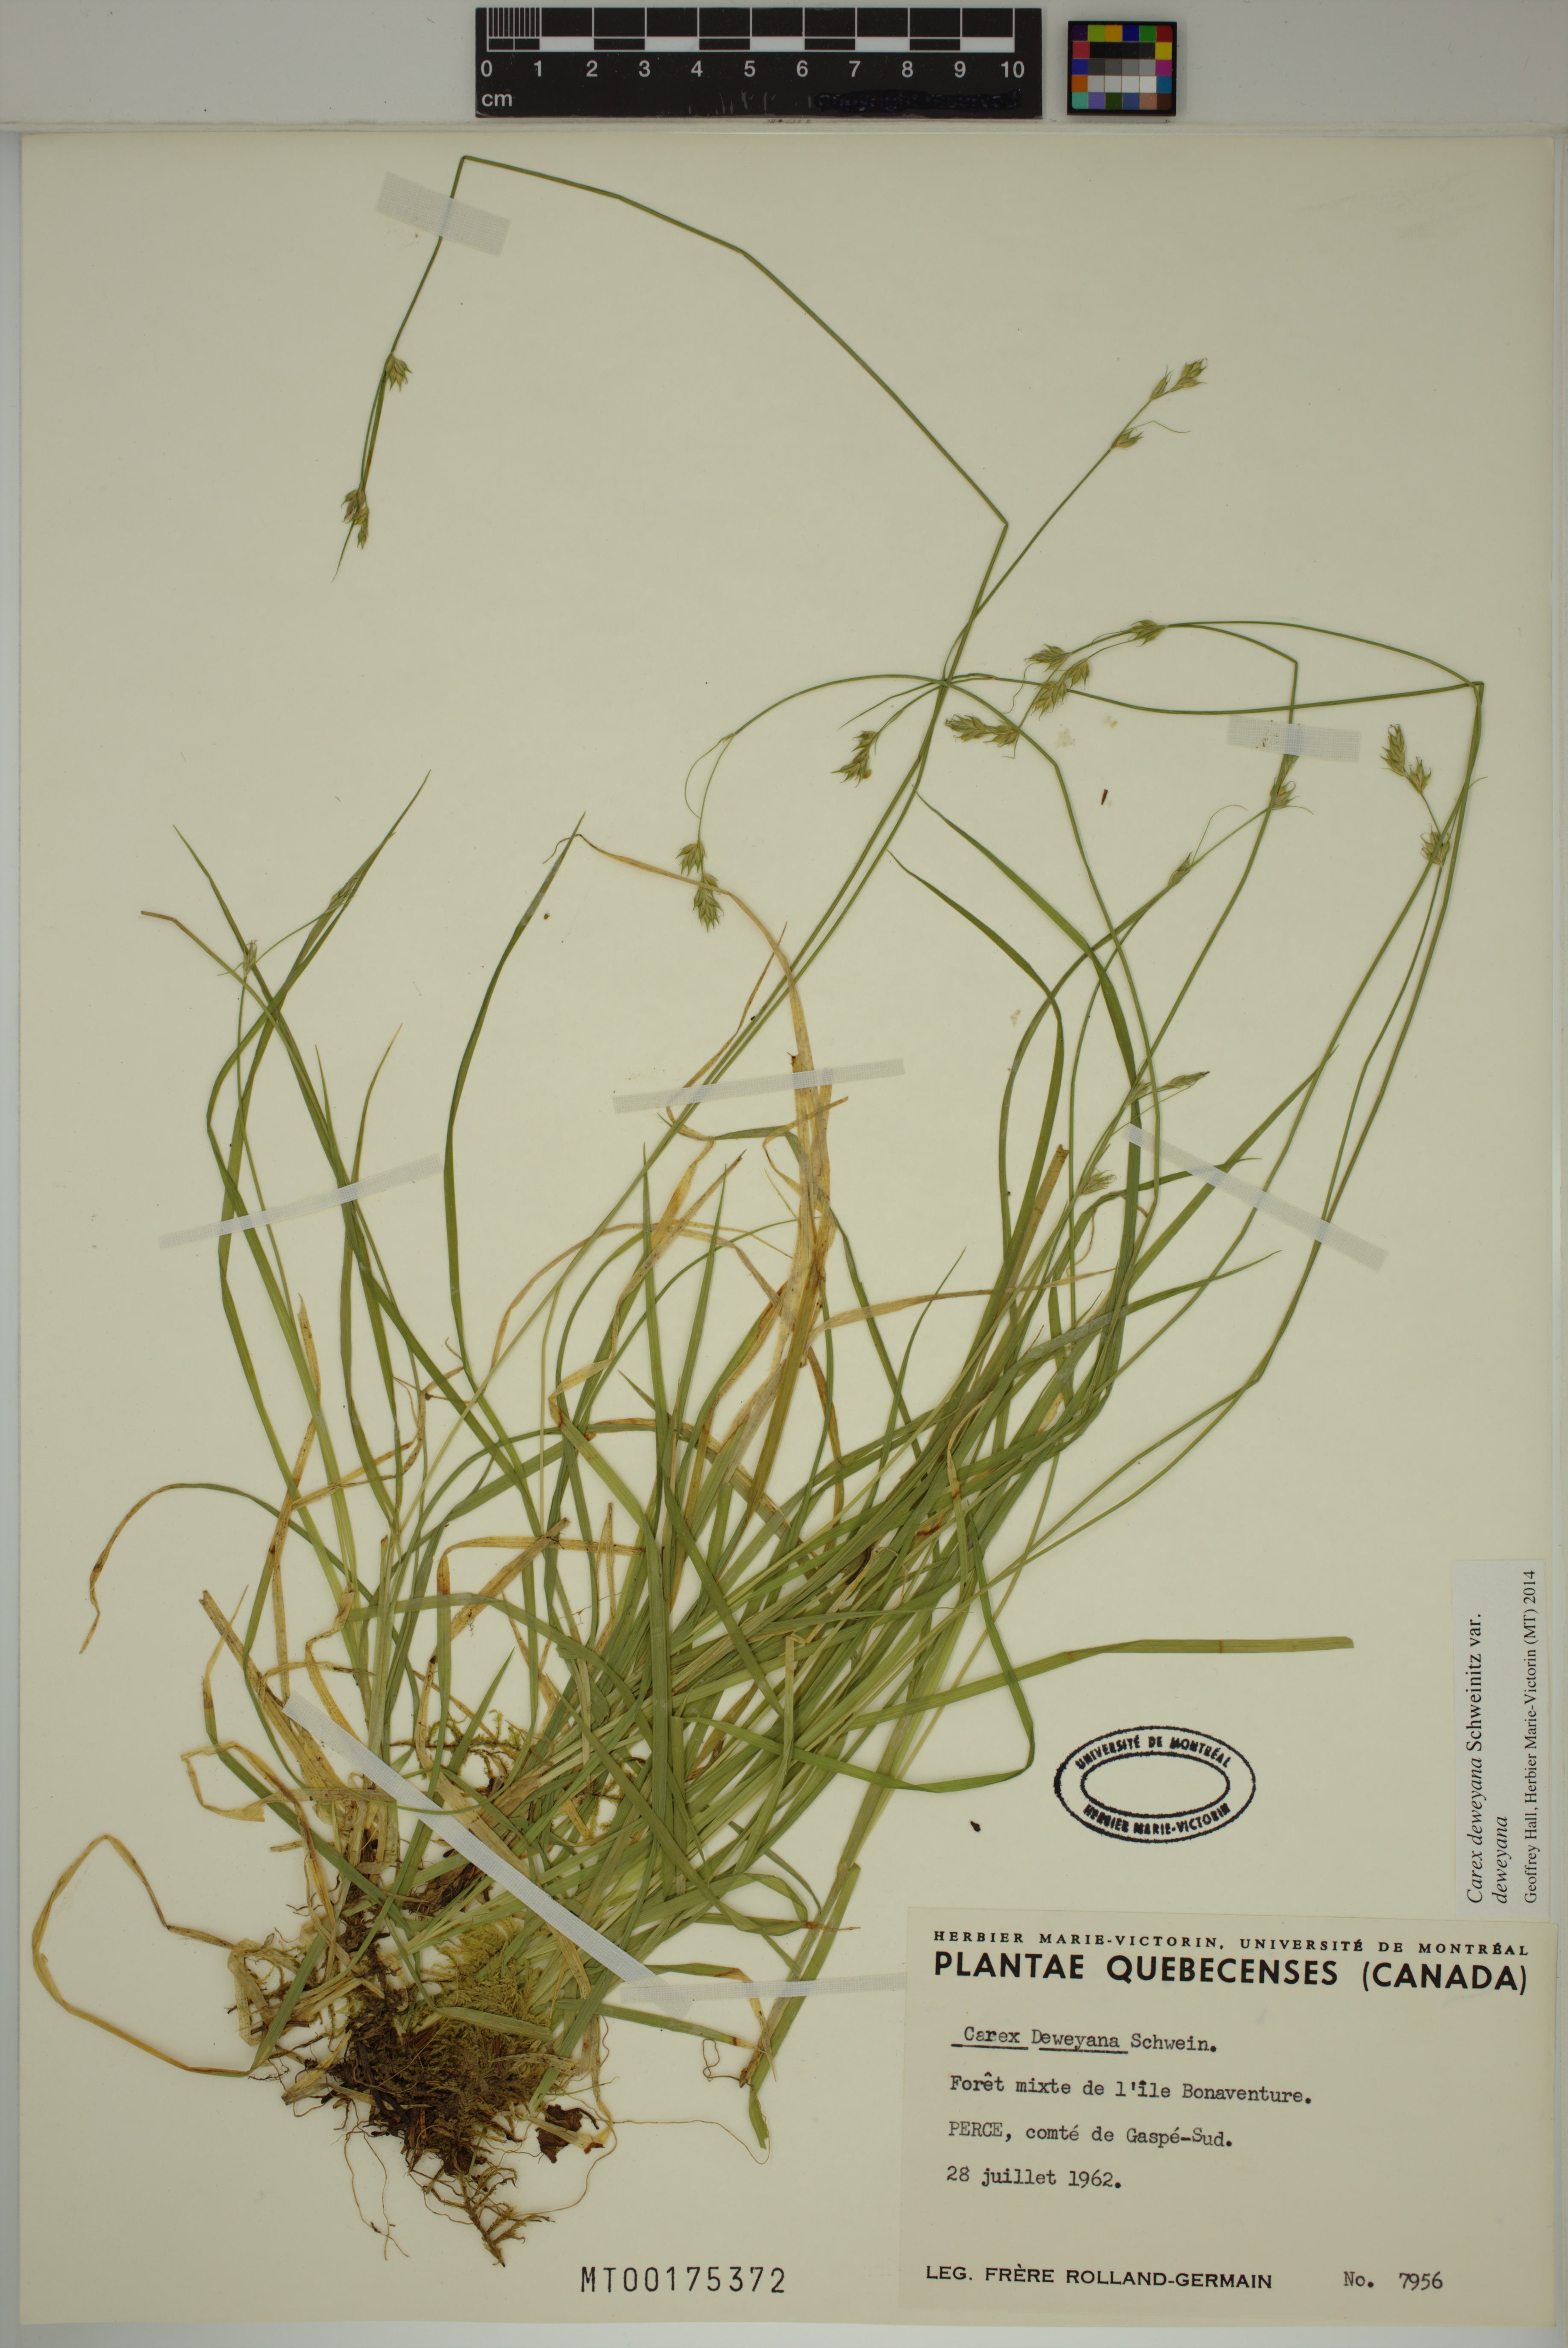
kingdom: Plantae
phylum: Tracheophyta
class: Liliopsida
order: Poales
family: Cyperaceae
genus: Carex
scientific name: Carex deweyana
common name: Dewey's sedge
